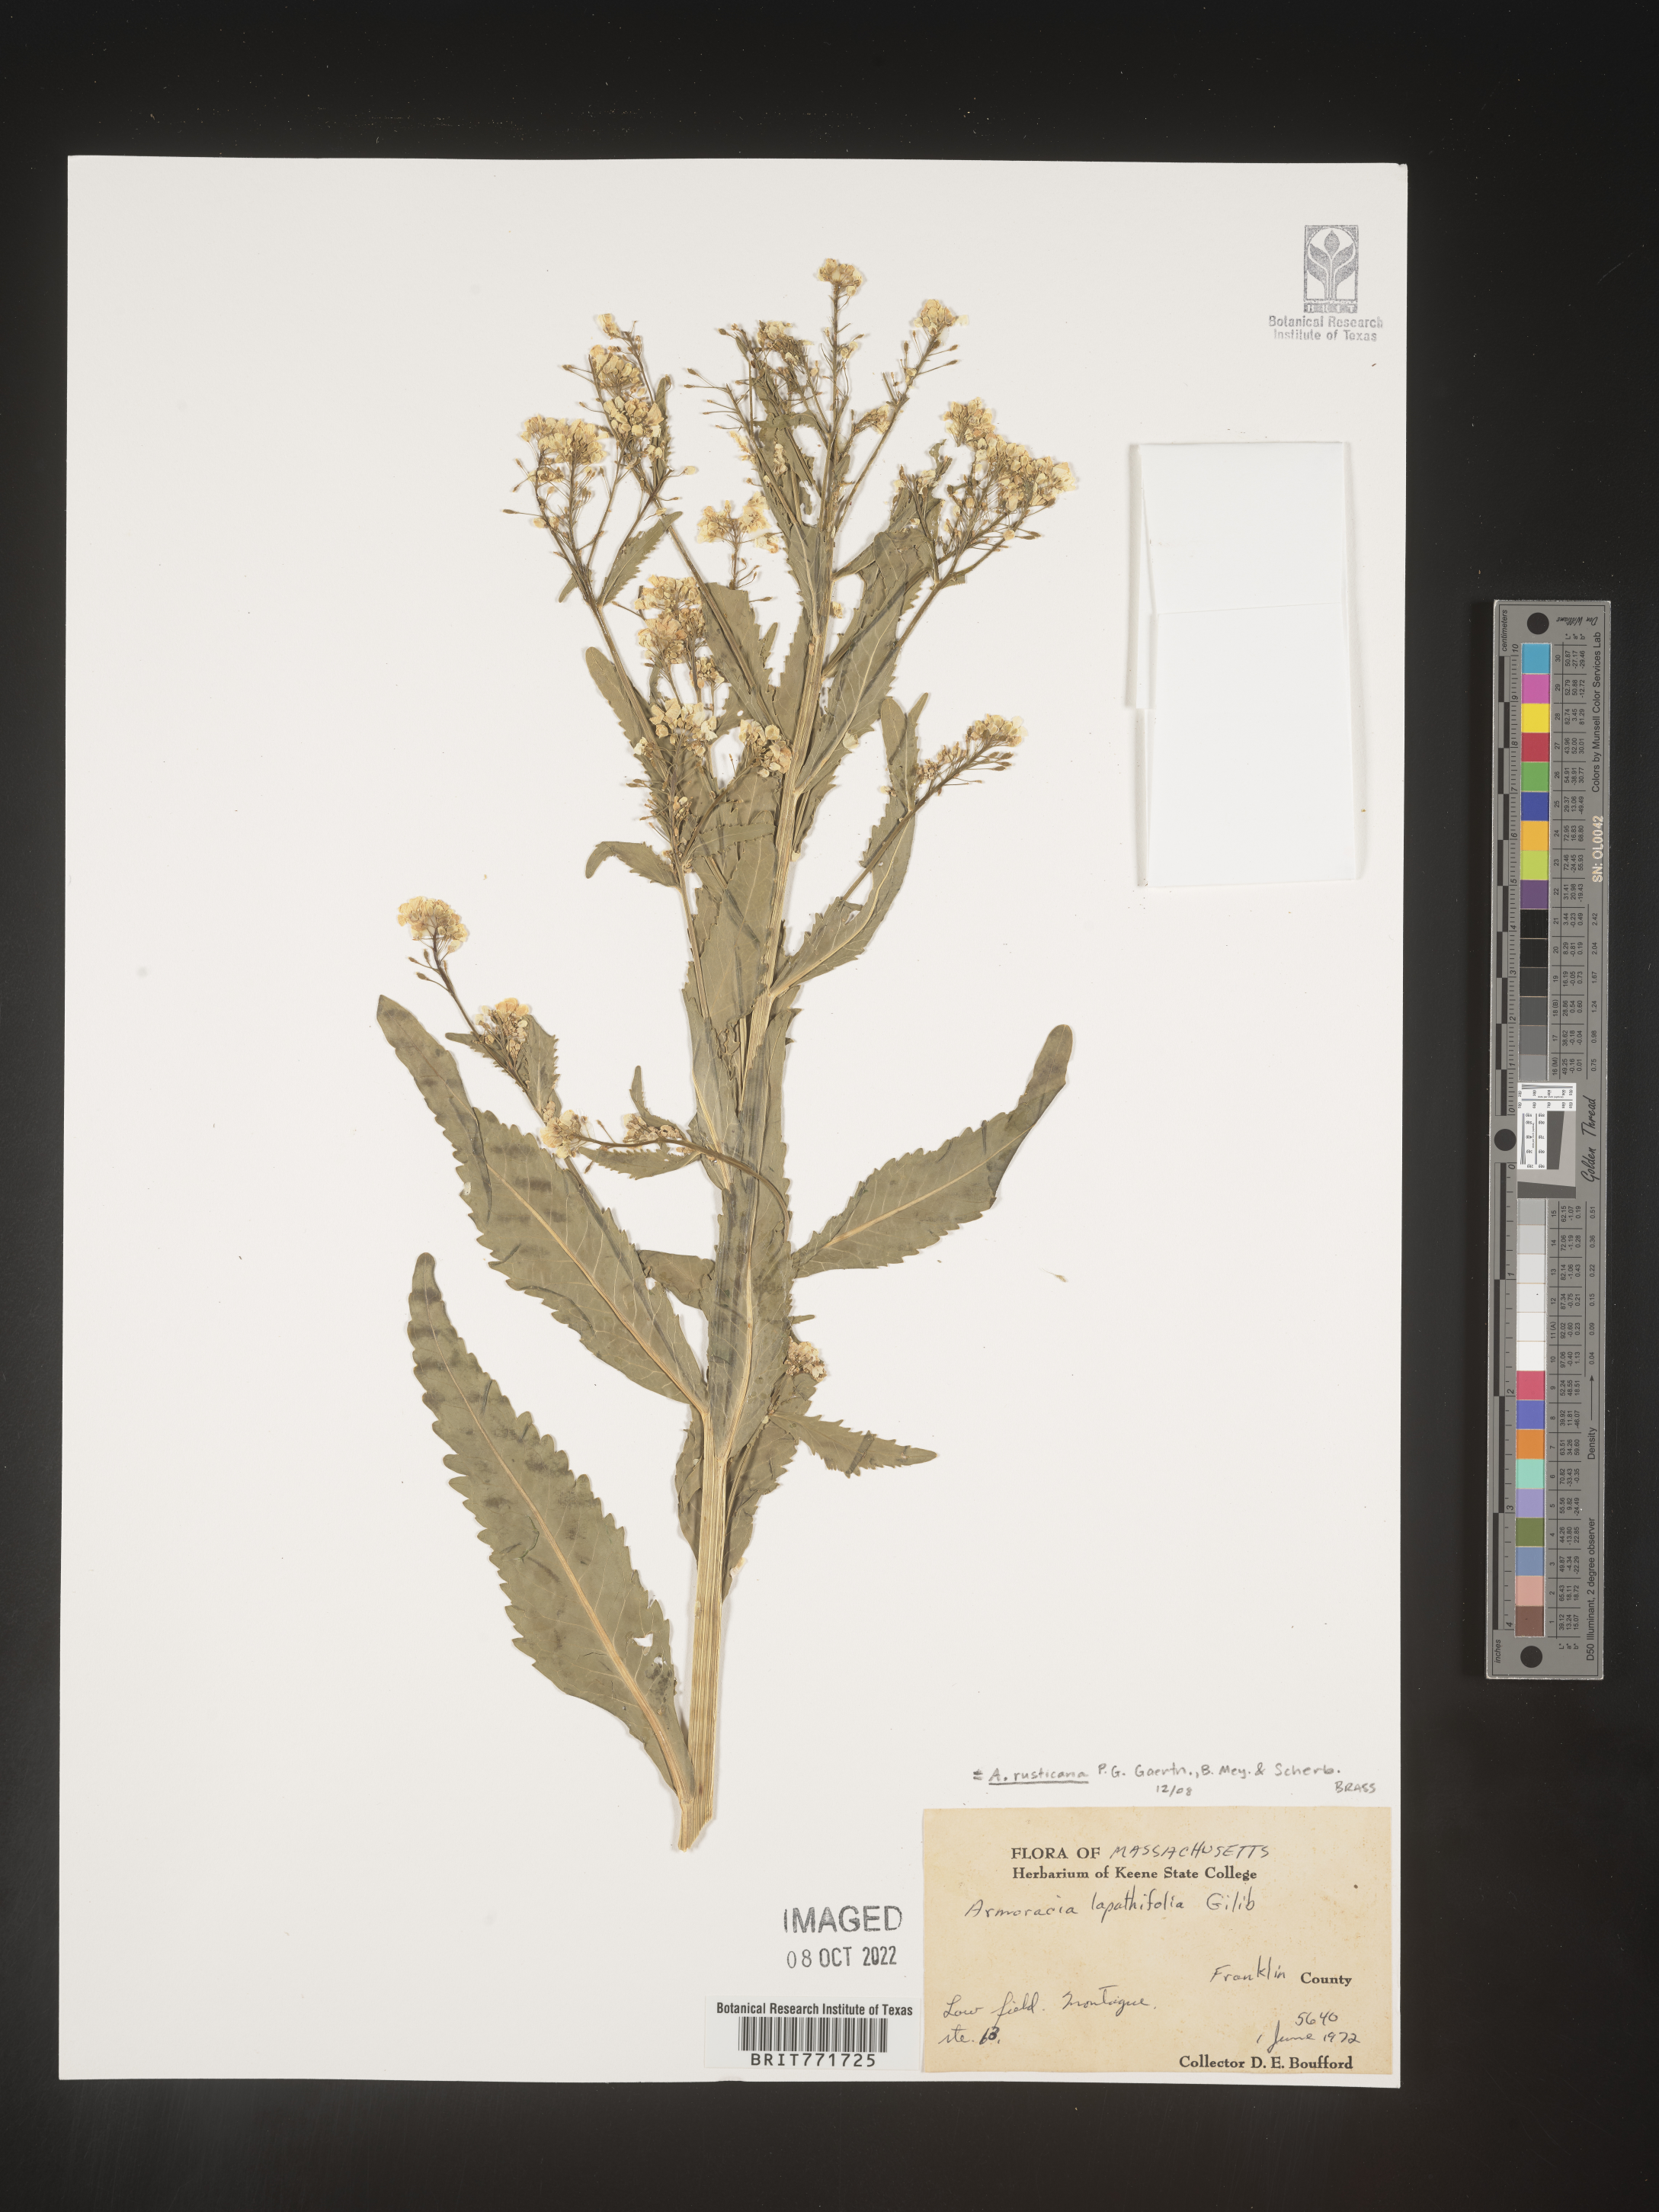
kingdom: Plantae
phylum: Tracheophyta
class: Magnoliopsida
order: Brassicales
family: Brassicaceae
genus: Armoracia
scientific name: Armoracia
